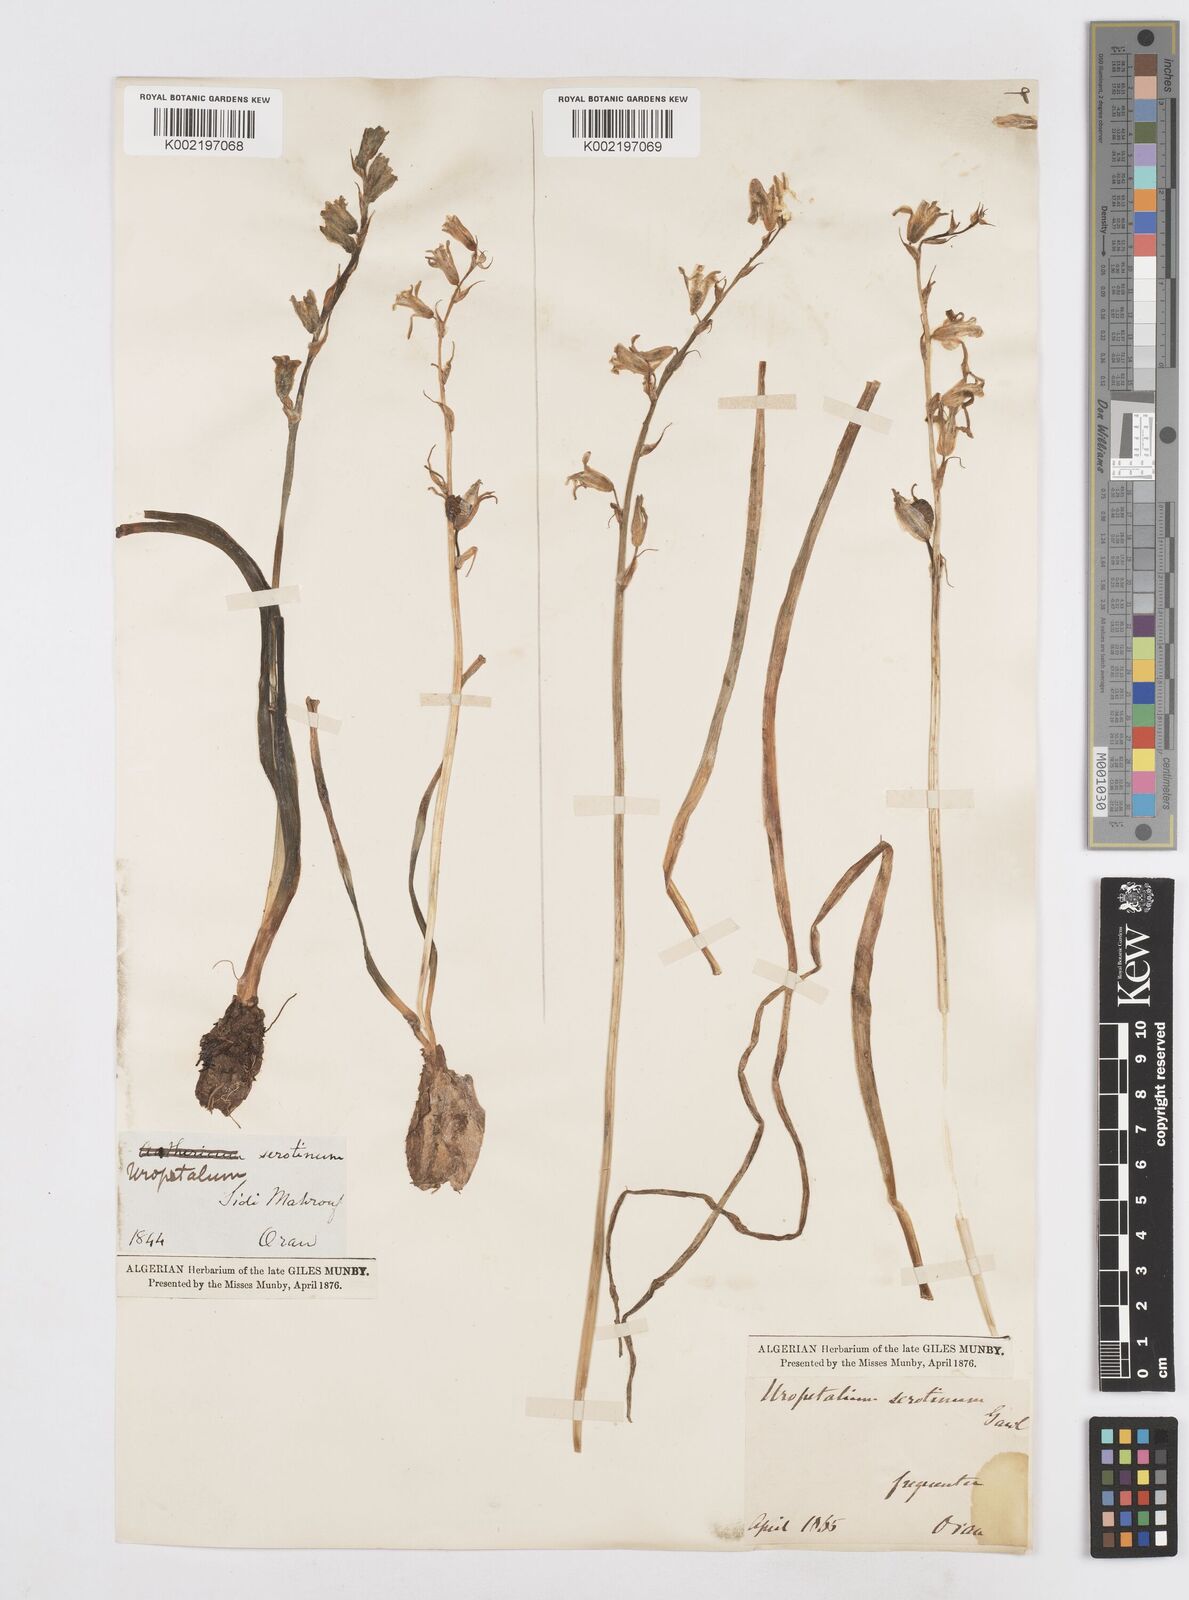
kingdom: Plantae
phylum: Tracheophyta
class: Liliopsida
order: Asparagales
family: Asparagaceae
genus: Dipcadi
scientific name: Dipcadi
